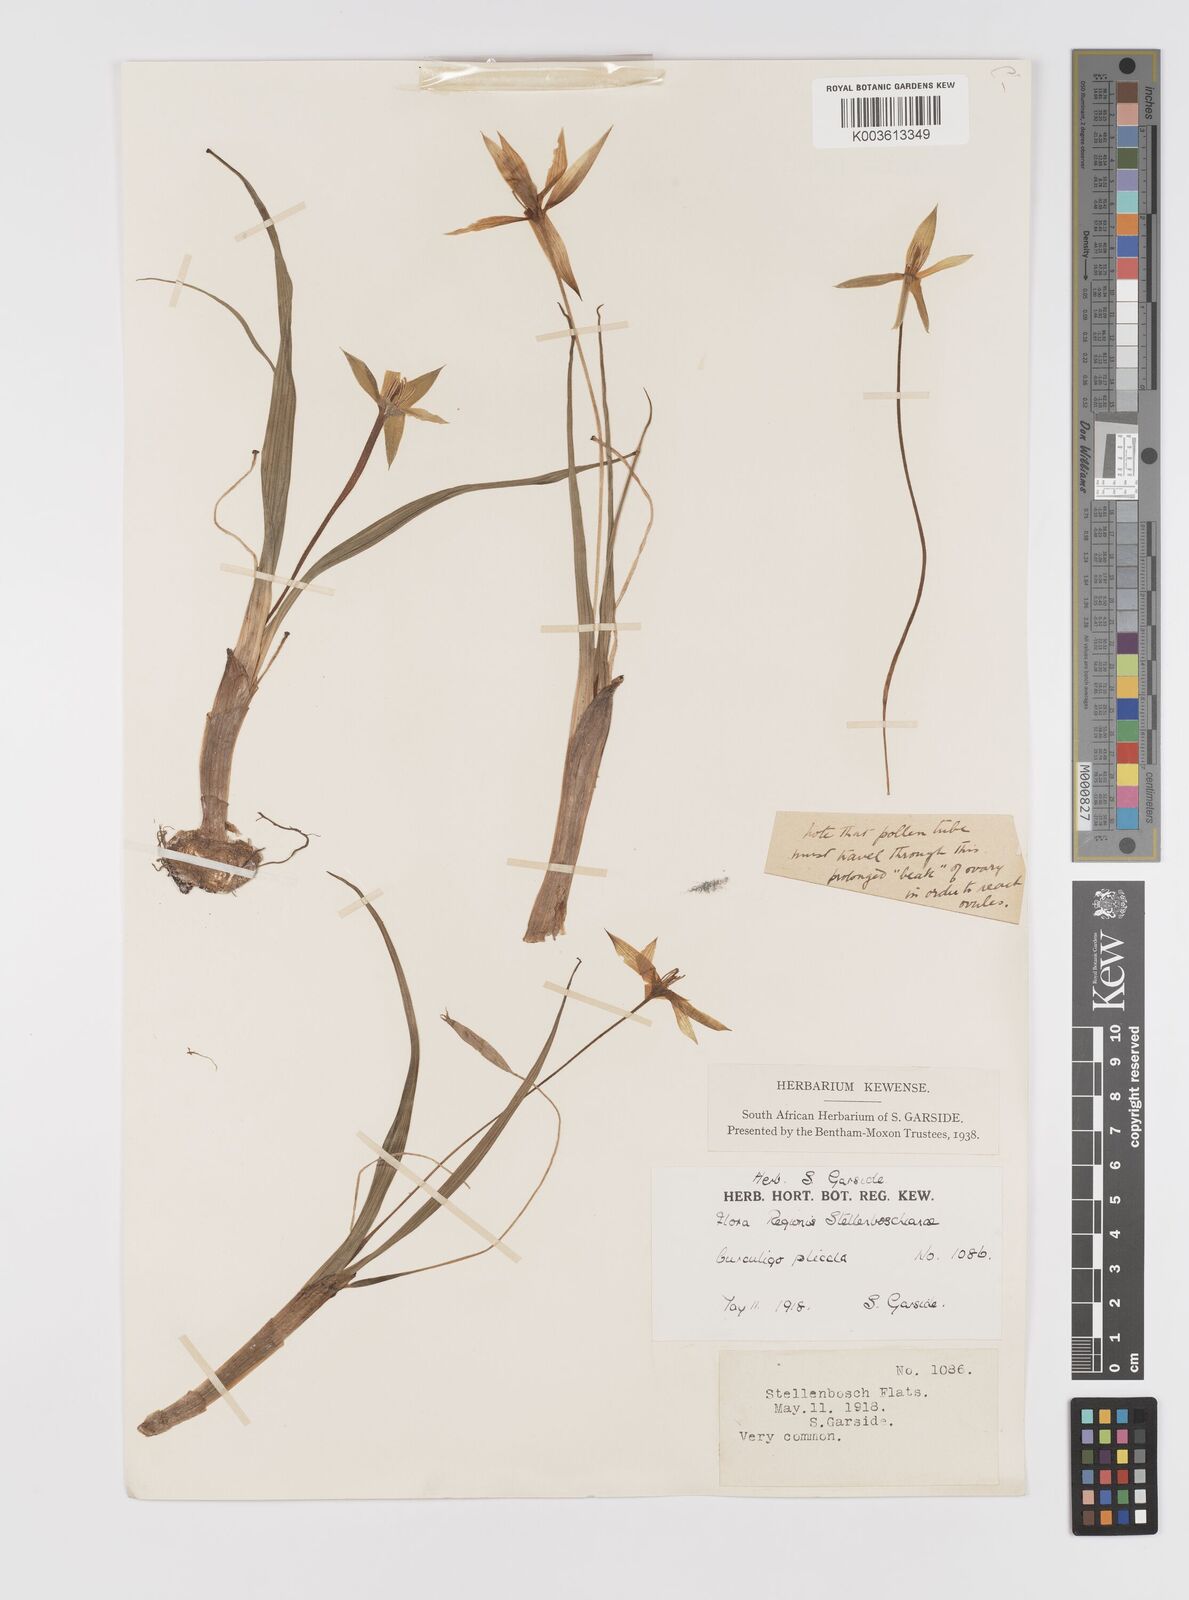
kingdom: Plantae
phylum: Tracheophyta
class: Liliopsida
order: Asparagales
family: Hypoxidaceae
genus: Empodium
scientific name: Empodium plicatum
